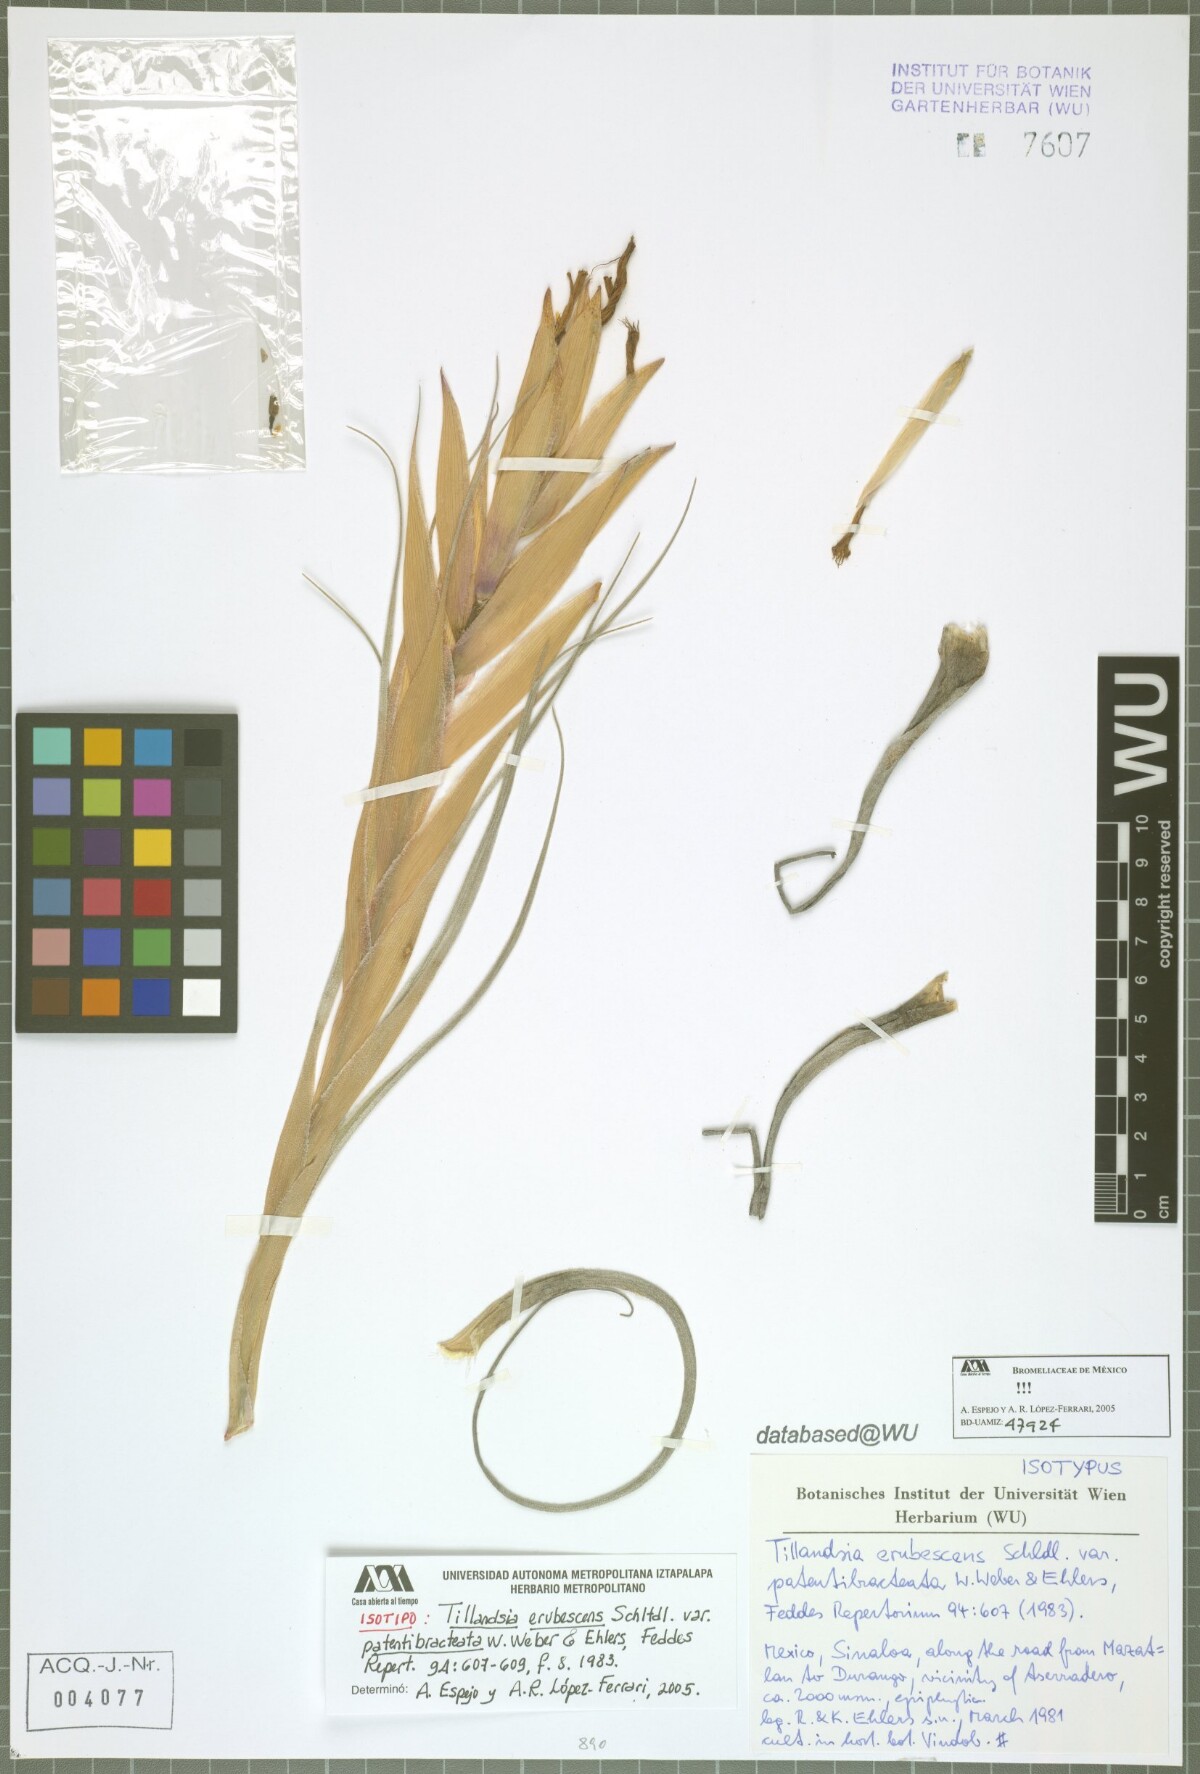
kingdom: Plantae
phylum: Tracheophyta
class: Liliopsida
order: Poales
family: Bromeliaceae
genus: Tillandsia
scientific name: Tillandsia erubescens
